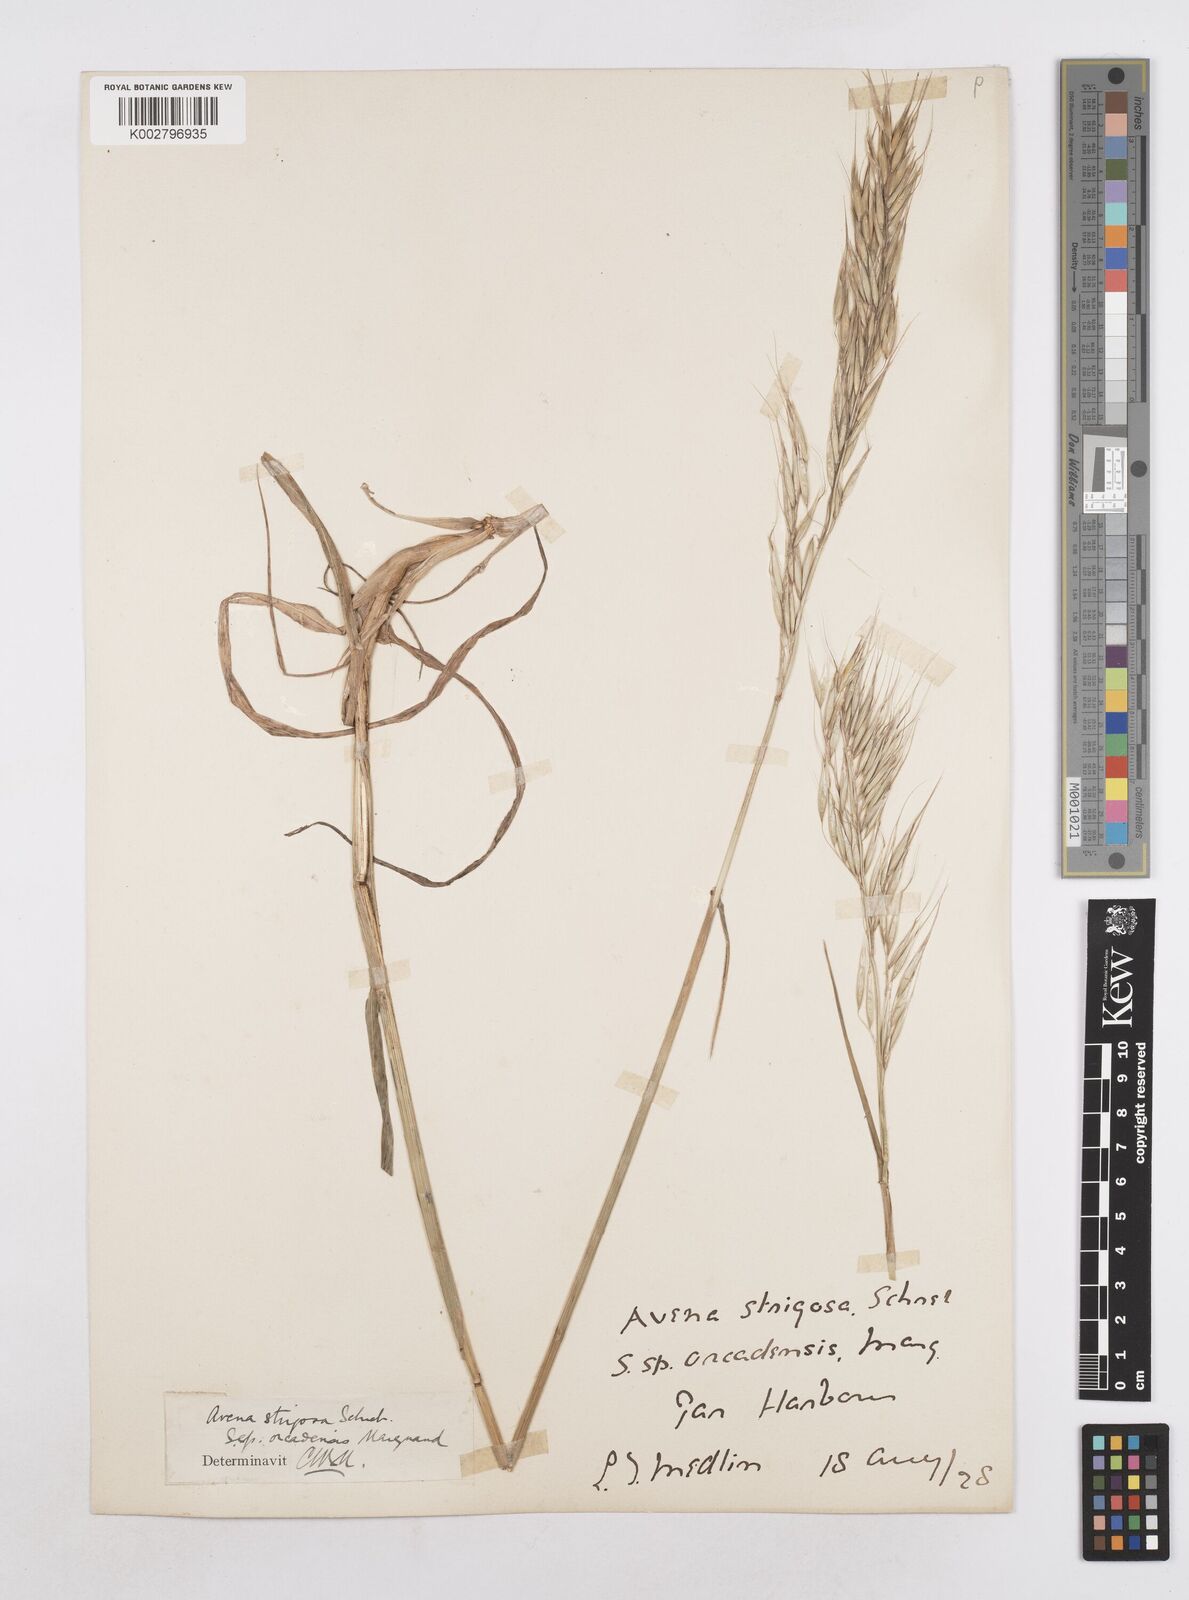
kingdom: Plantae
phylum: Tracheophyta
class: Liliopsida
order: Poales
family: Poaceae
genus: Avena
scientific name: Avena strigosa
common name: Bristle oat
